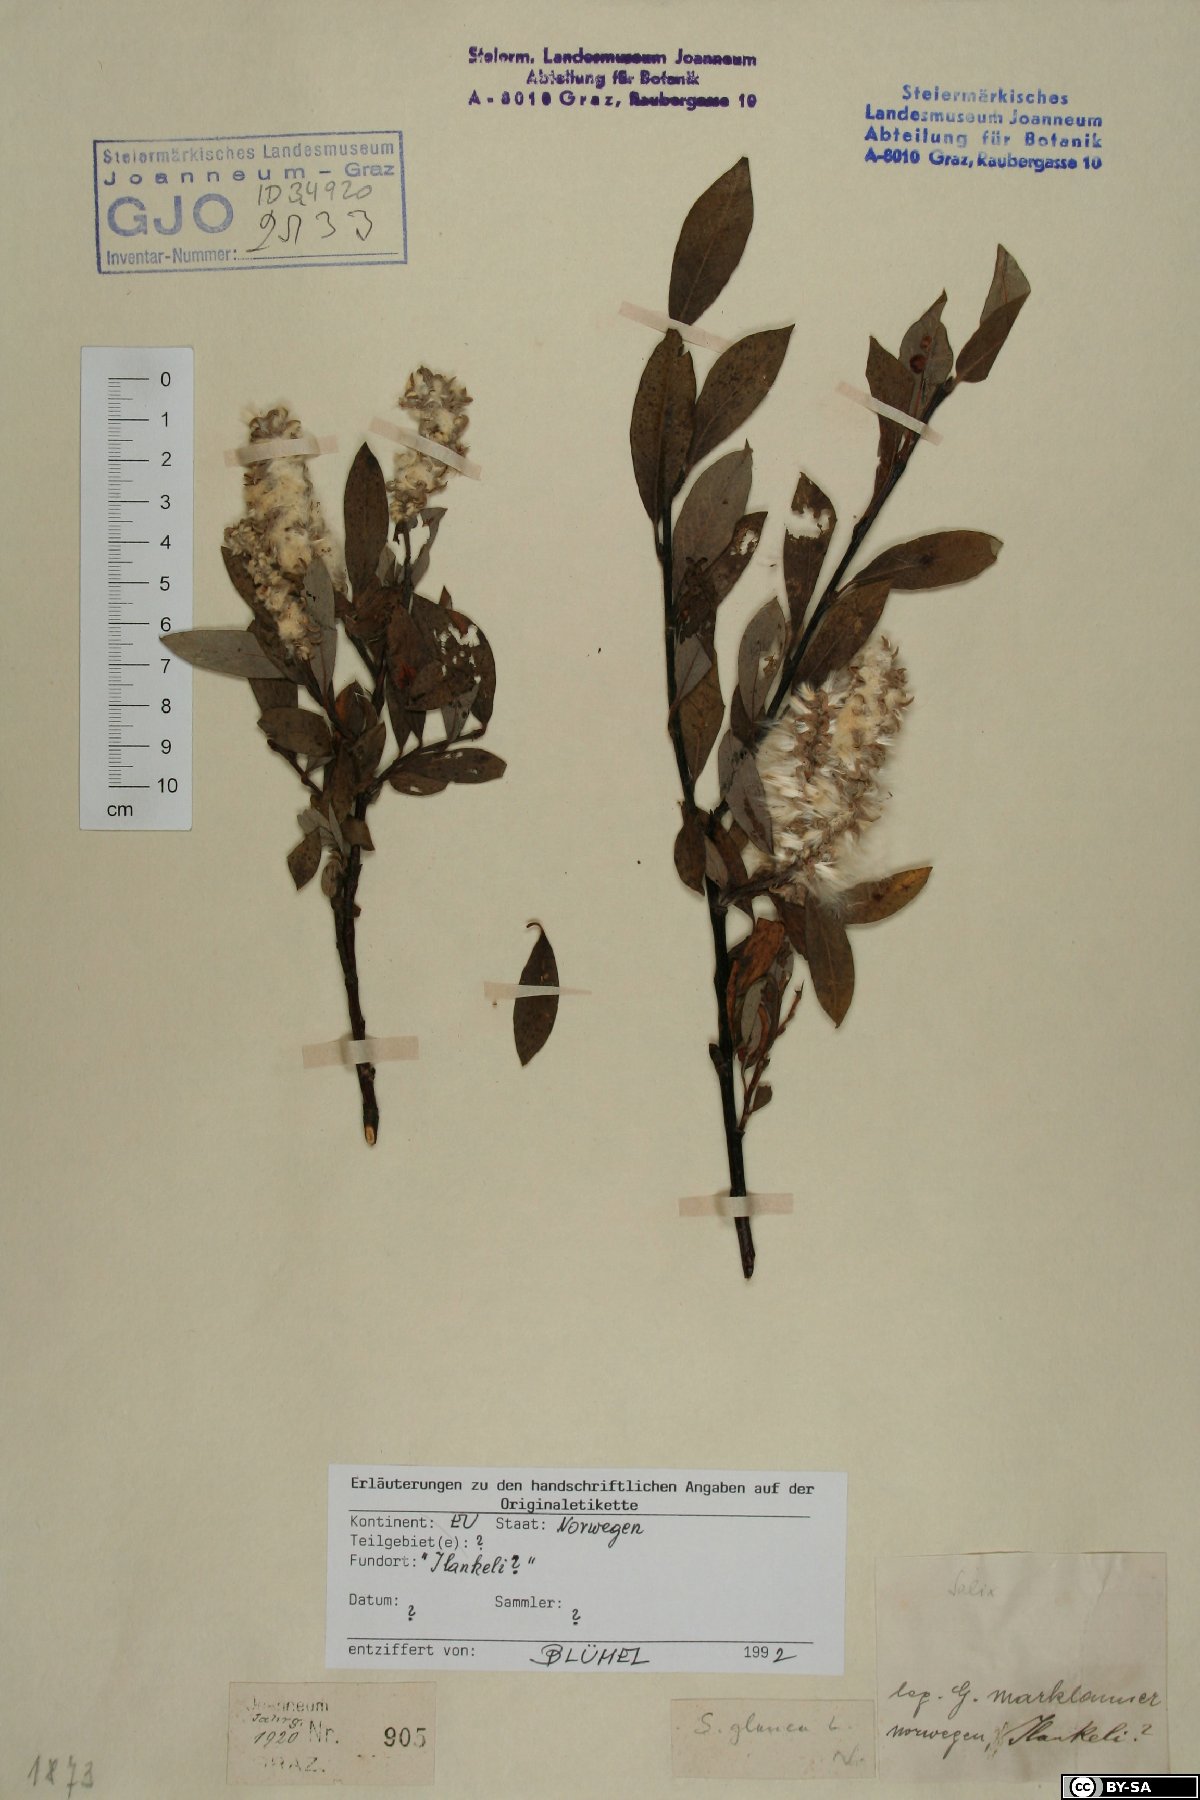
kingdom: Plantae
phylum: Tracheophyta
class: Magnoliopsida
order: Malpighiales
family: Salicaceae
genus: Salix
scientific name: Salix glauca
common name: Glaucous willow
